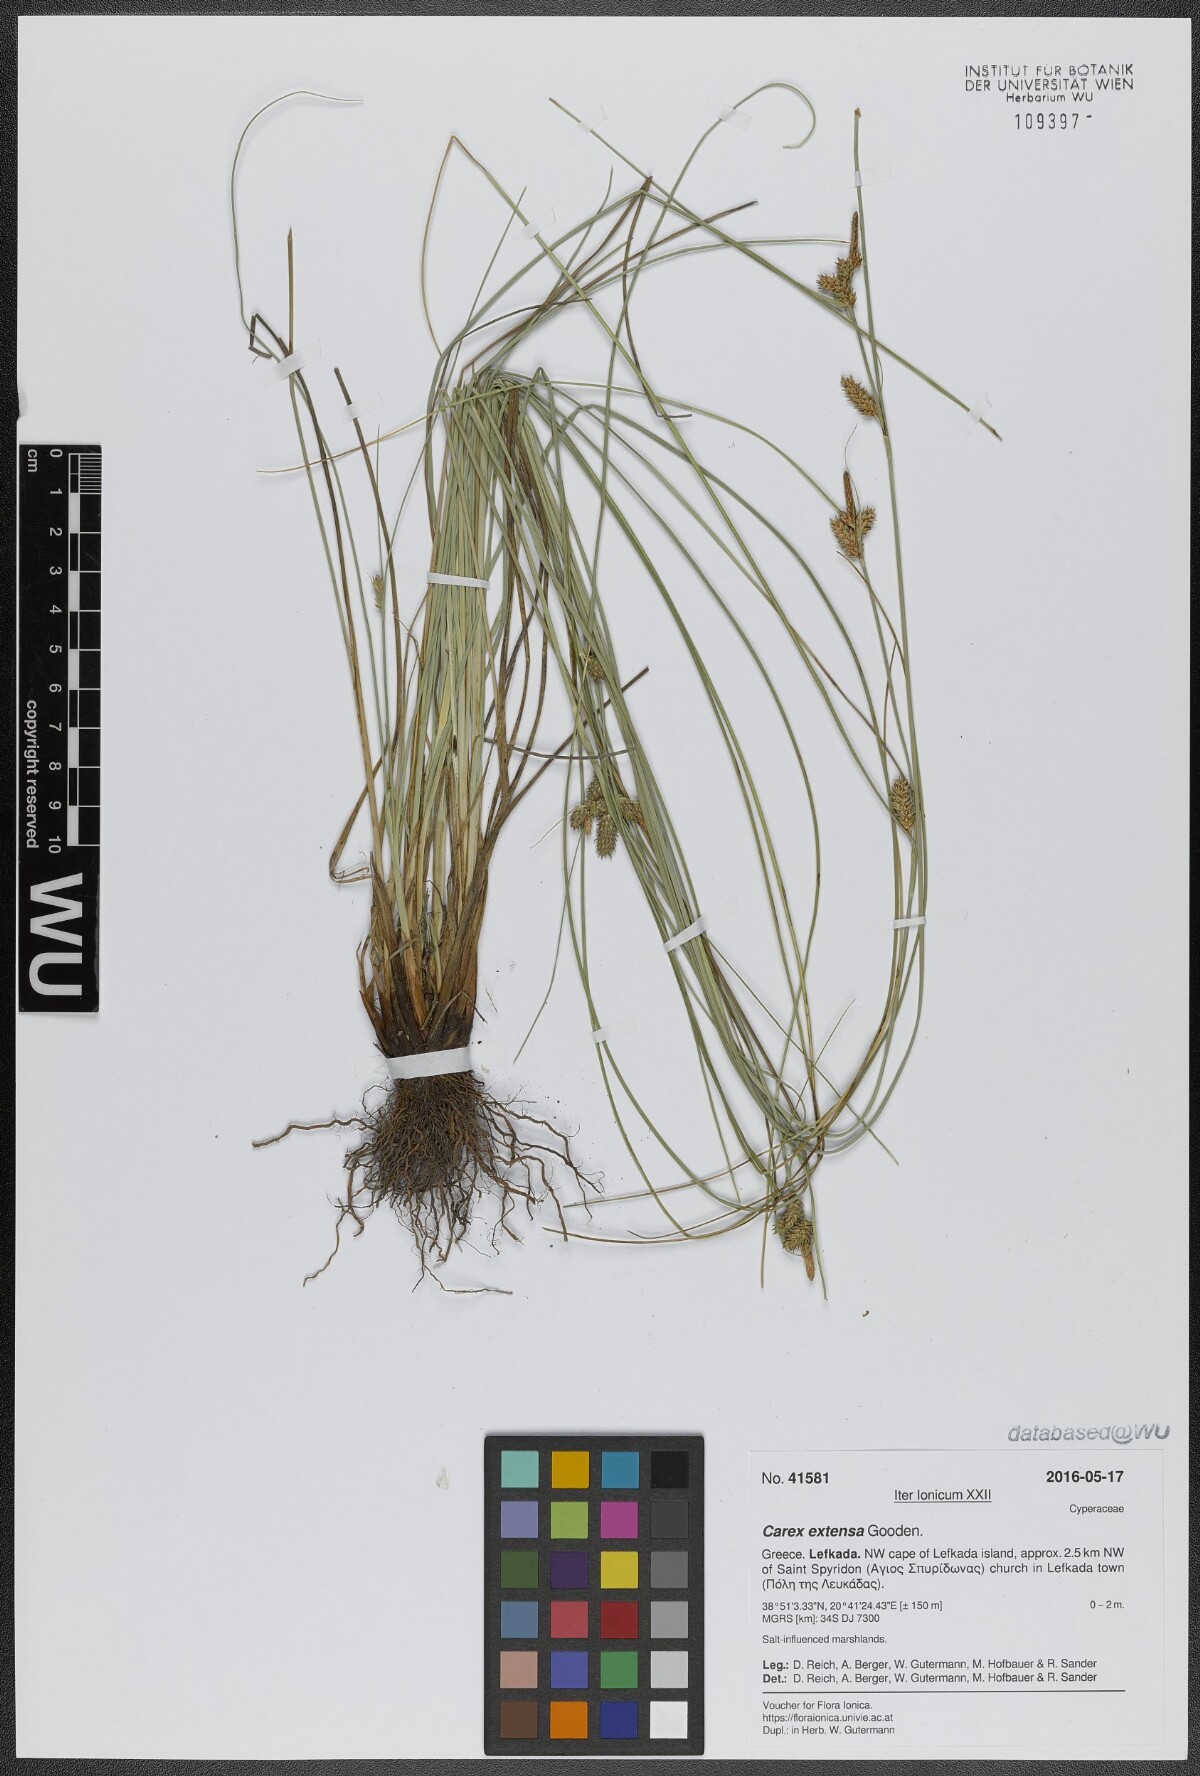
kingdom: Plantae
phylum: Tracheophyta
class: Liliopsida
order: Poales
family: Cyperaceae
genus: Carex
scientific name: Carex extensa
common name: Long-bracted sedge
